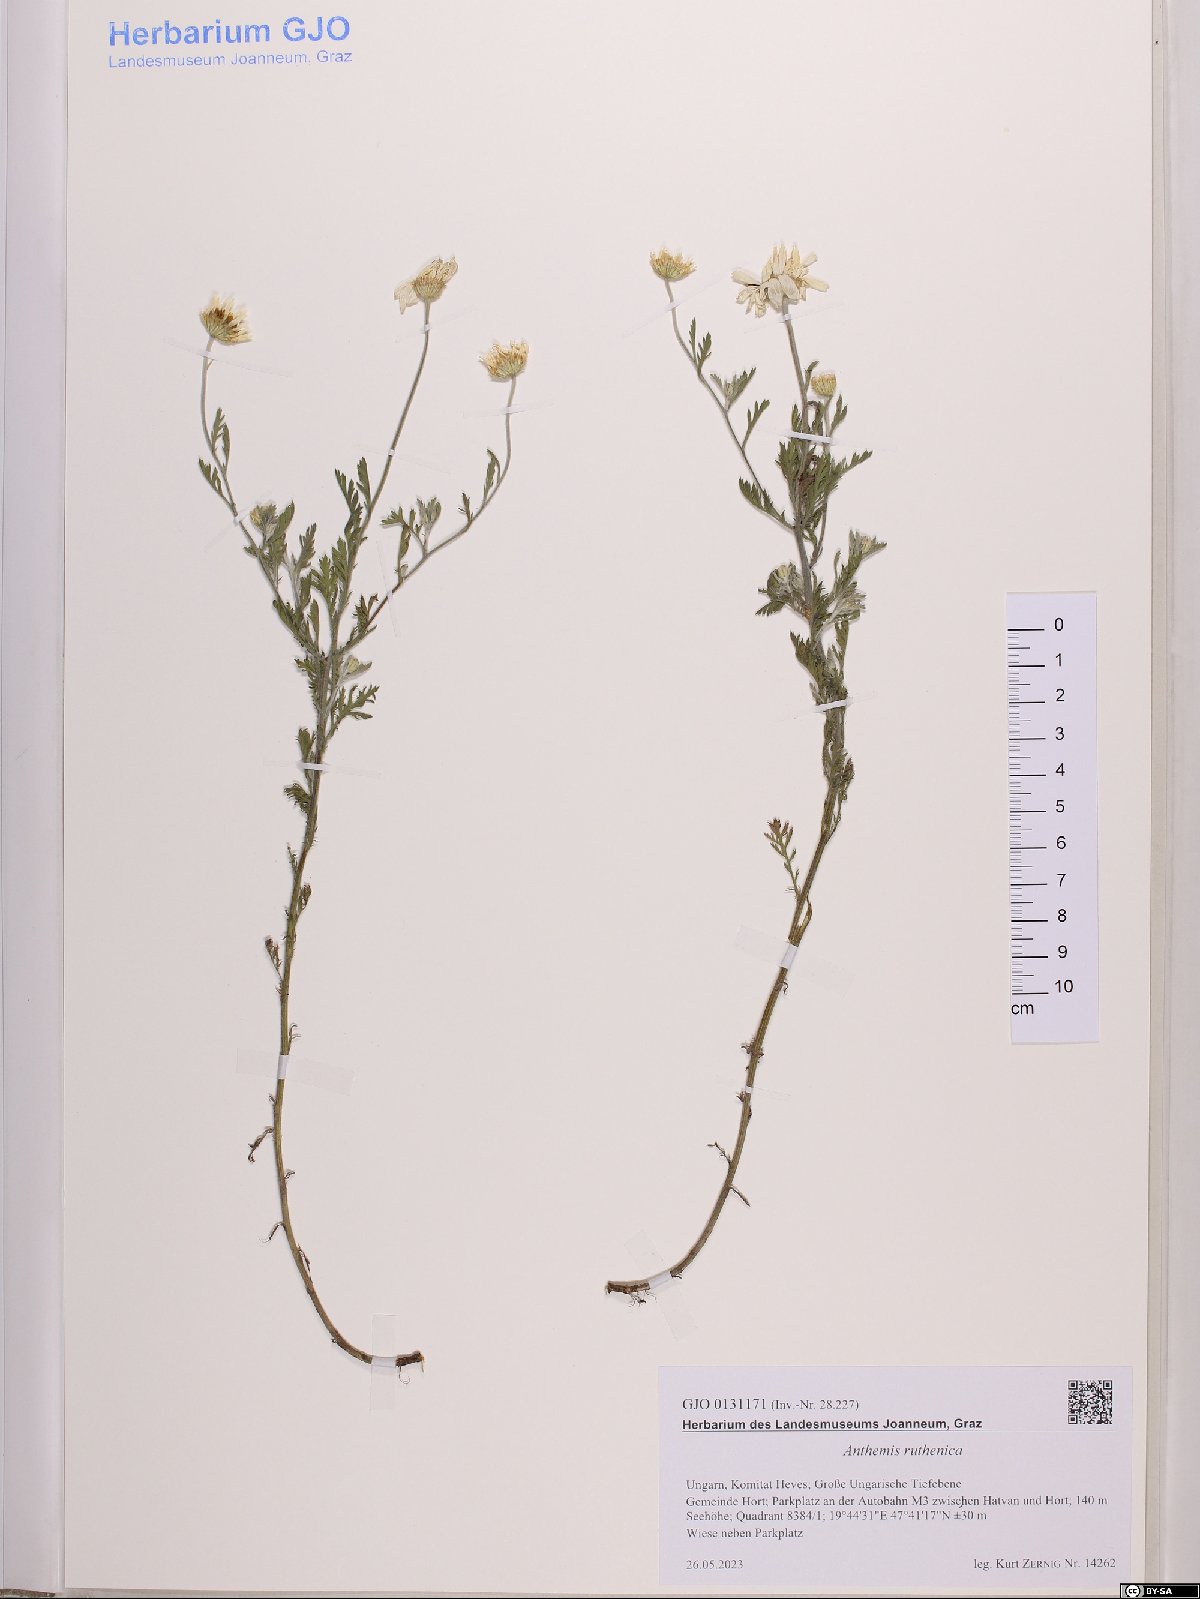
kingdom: Plantae
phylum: Tracheophyta
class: Magnoliopsida
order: Asterales
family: Asteraceae
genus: Anthemis
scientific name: Anthemis ruthenica
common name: Eastern chamomile
